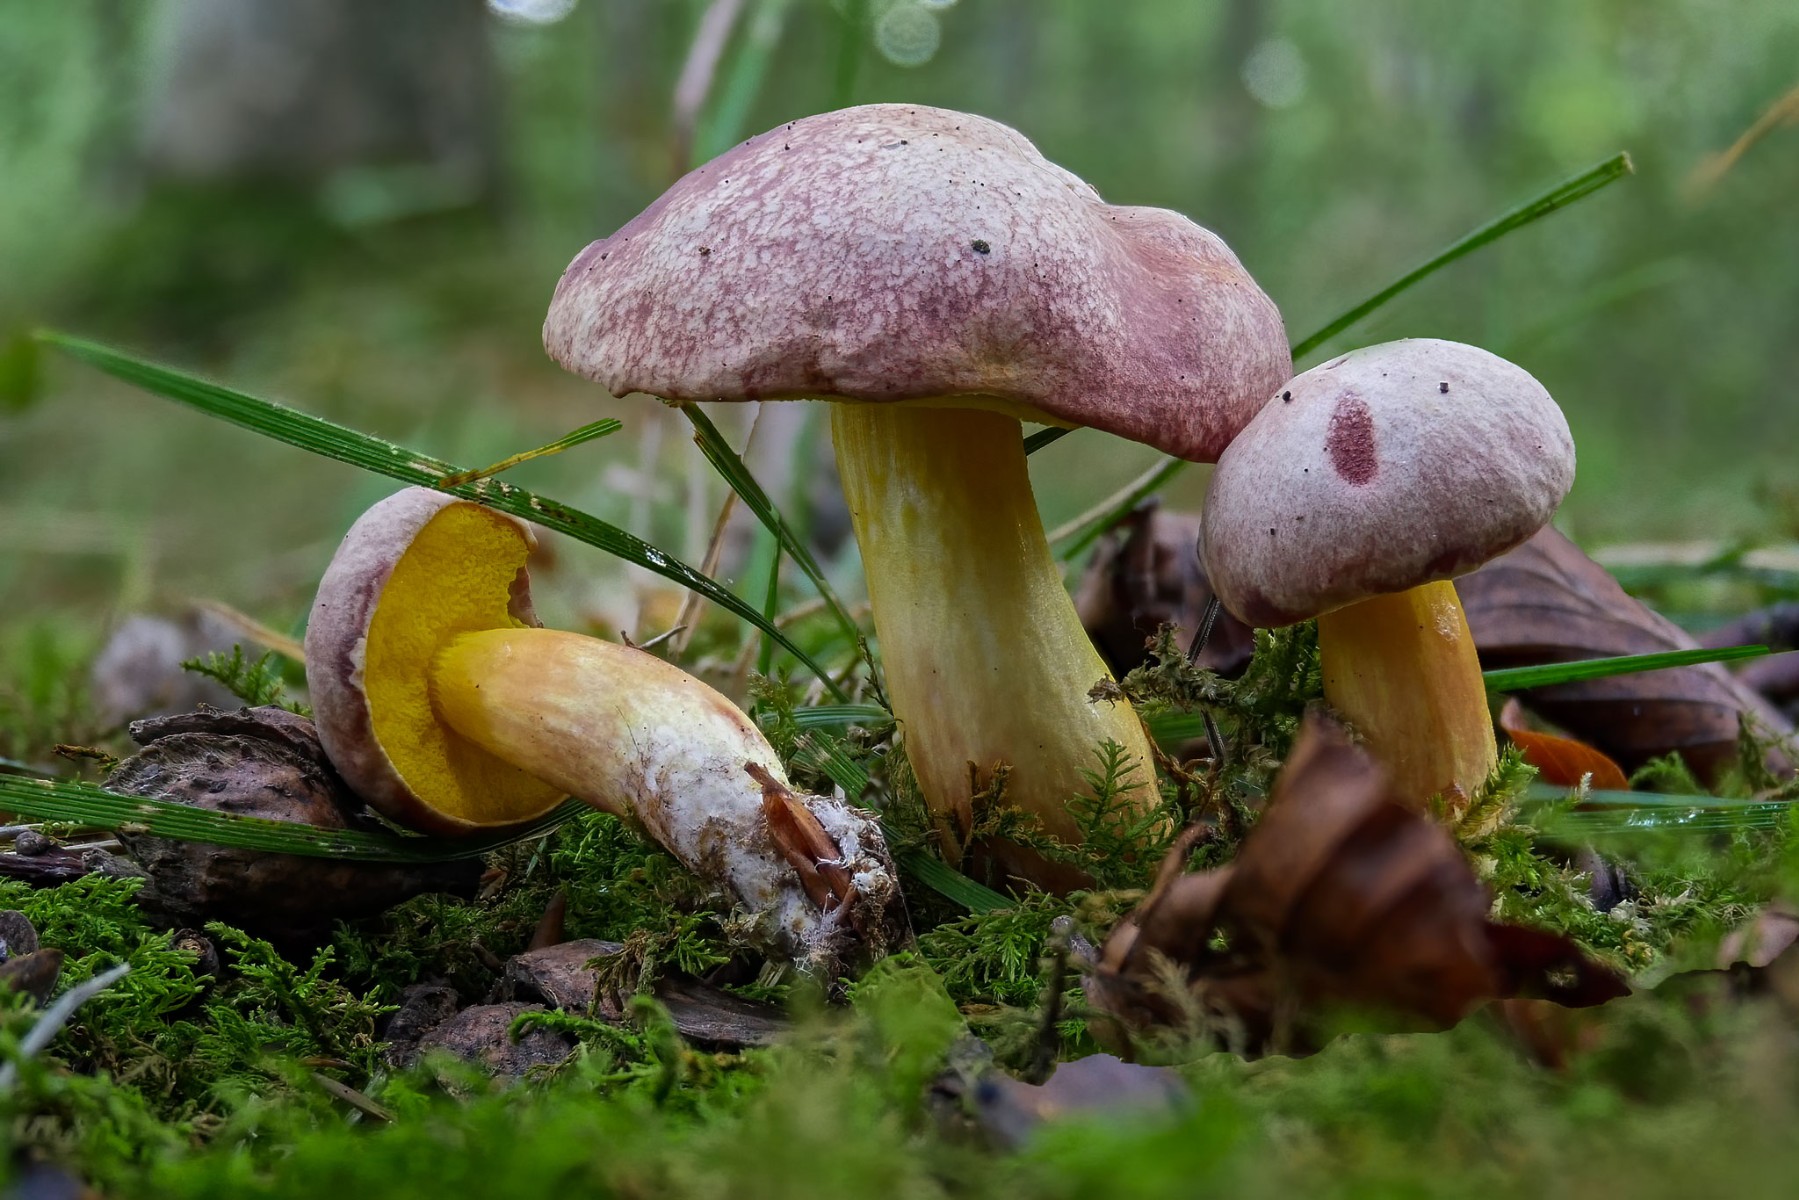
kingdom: Fungi
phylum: Basidiomycota
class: Agaricomycetes
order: Boletales
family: Boletaceae
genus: Aureoboletus
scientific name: Aureoboletus gentilis
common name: guldrørhat
